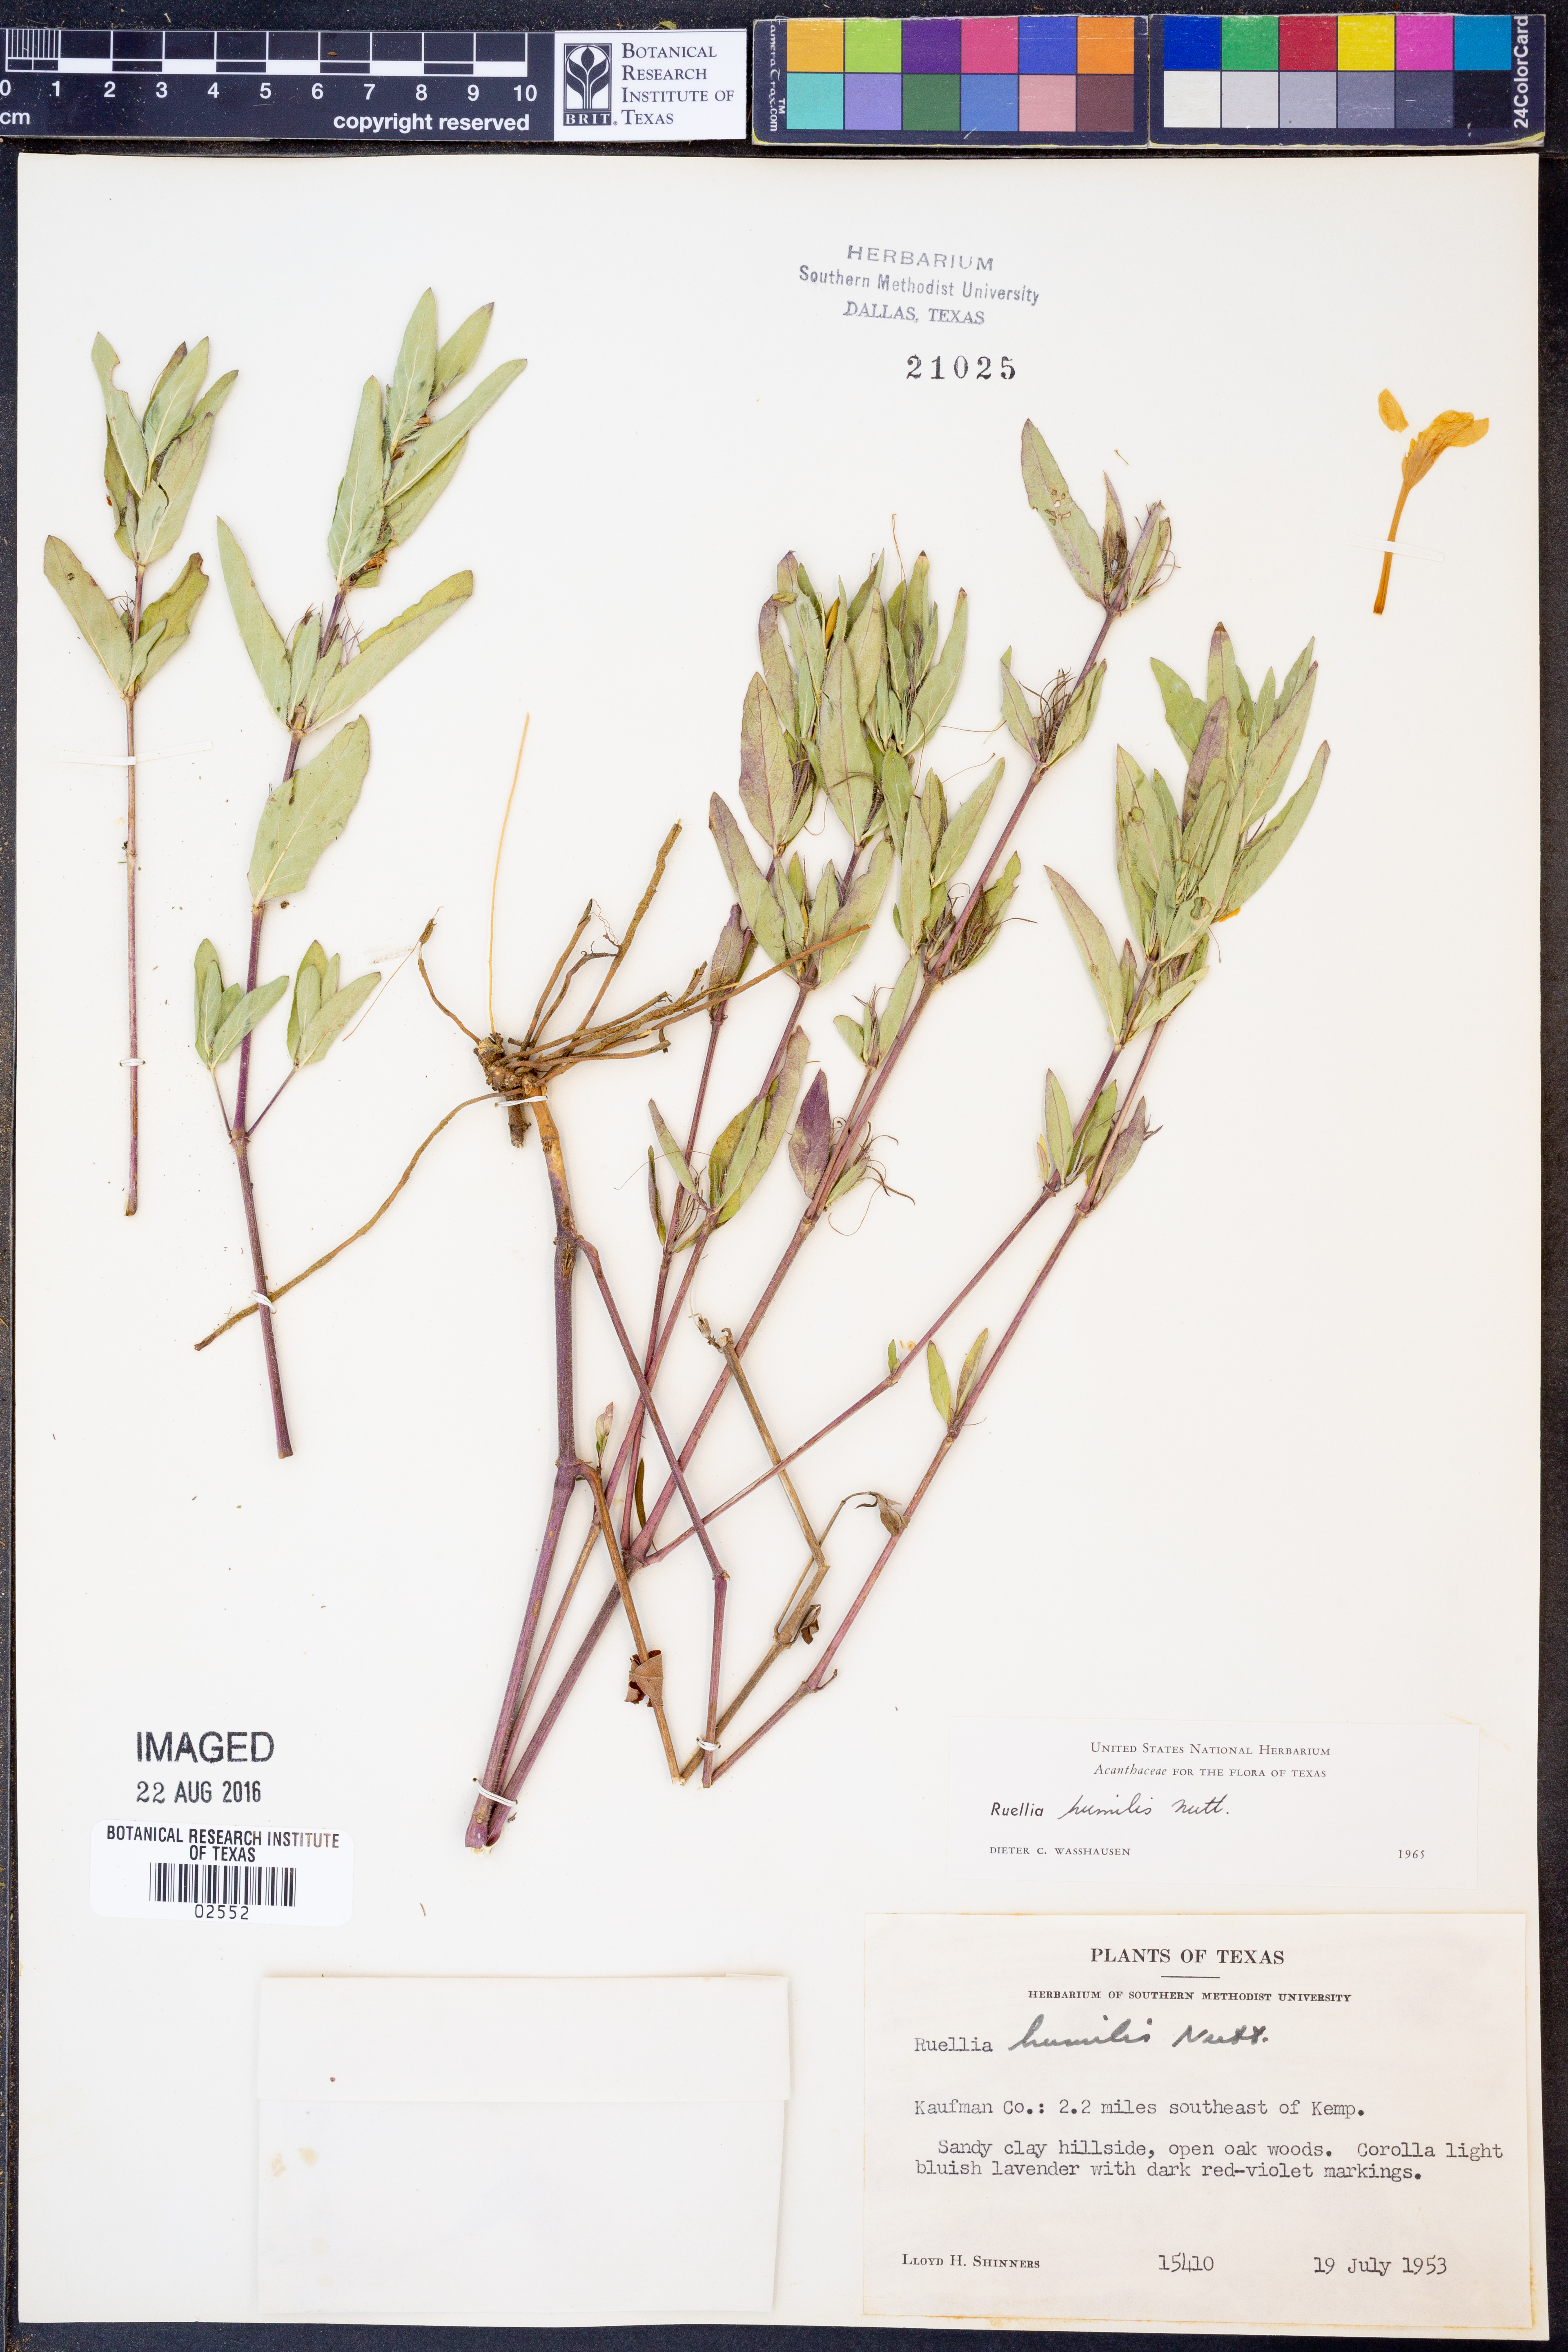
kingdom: Plantae
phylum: Tracheophyta
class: Magnoliopsida
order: Lamiales
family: Acanthaceae
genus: Ruellia
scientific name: Ruellia humilis
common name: Fringe-leaf ruellia
